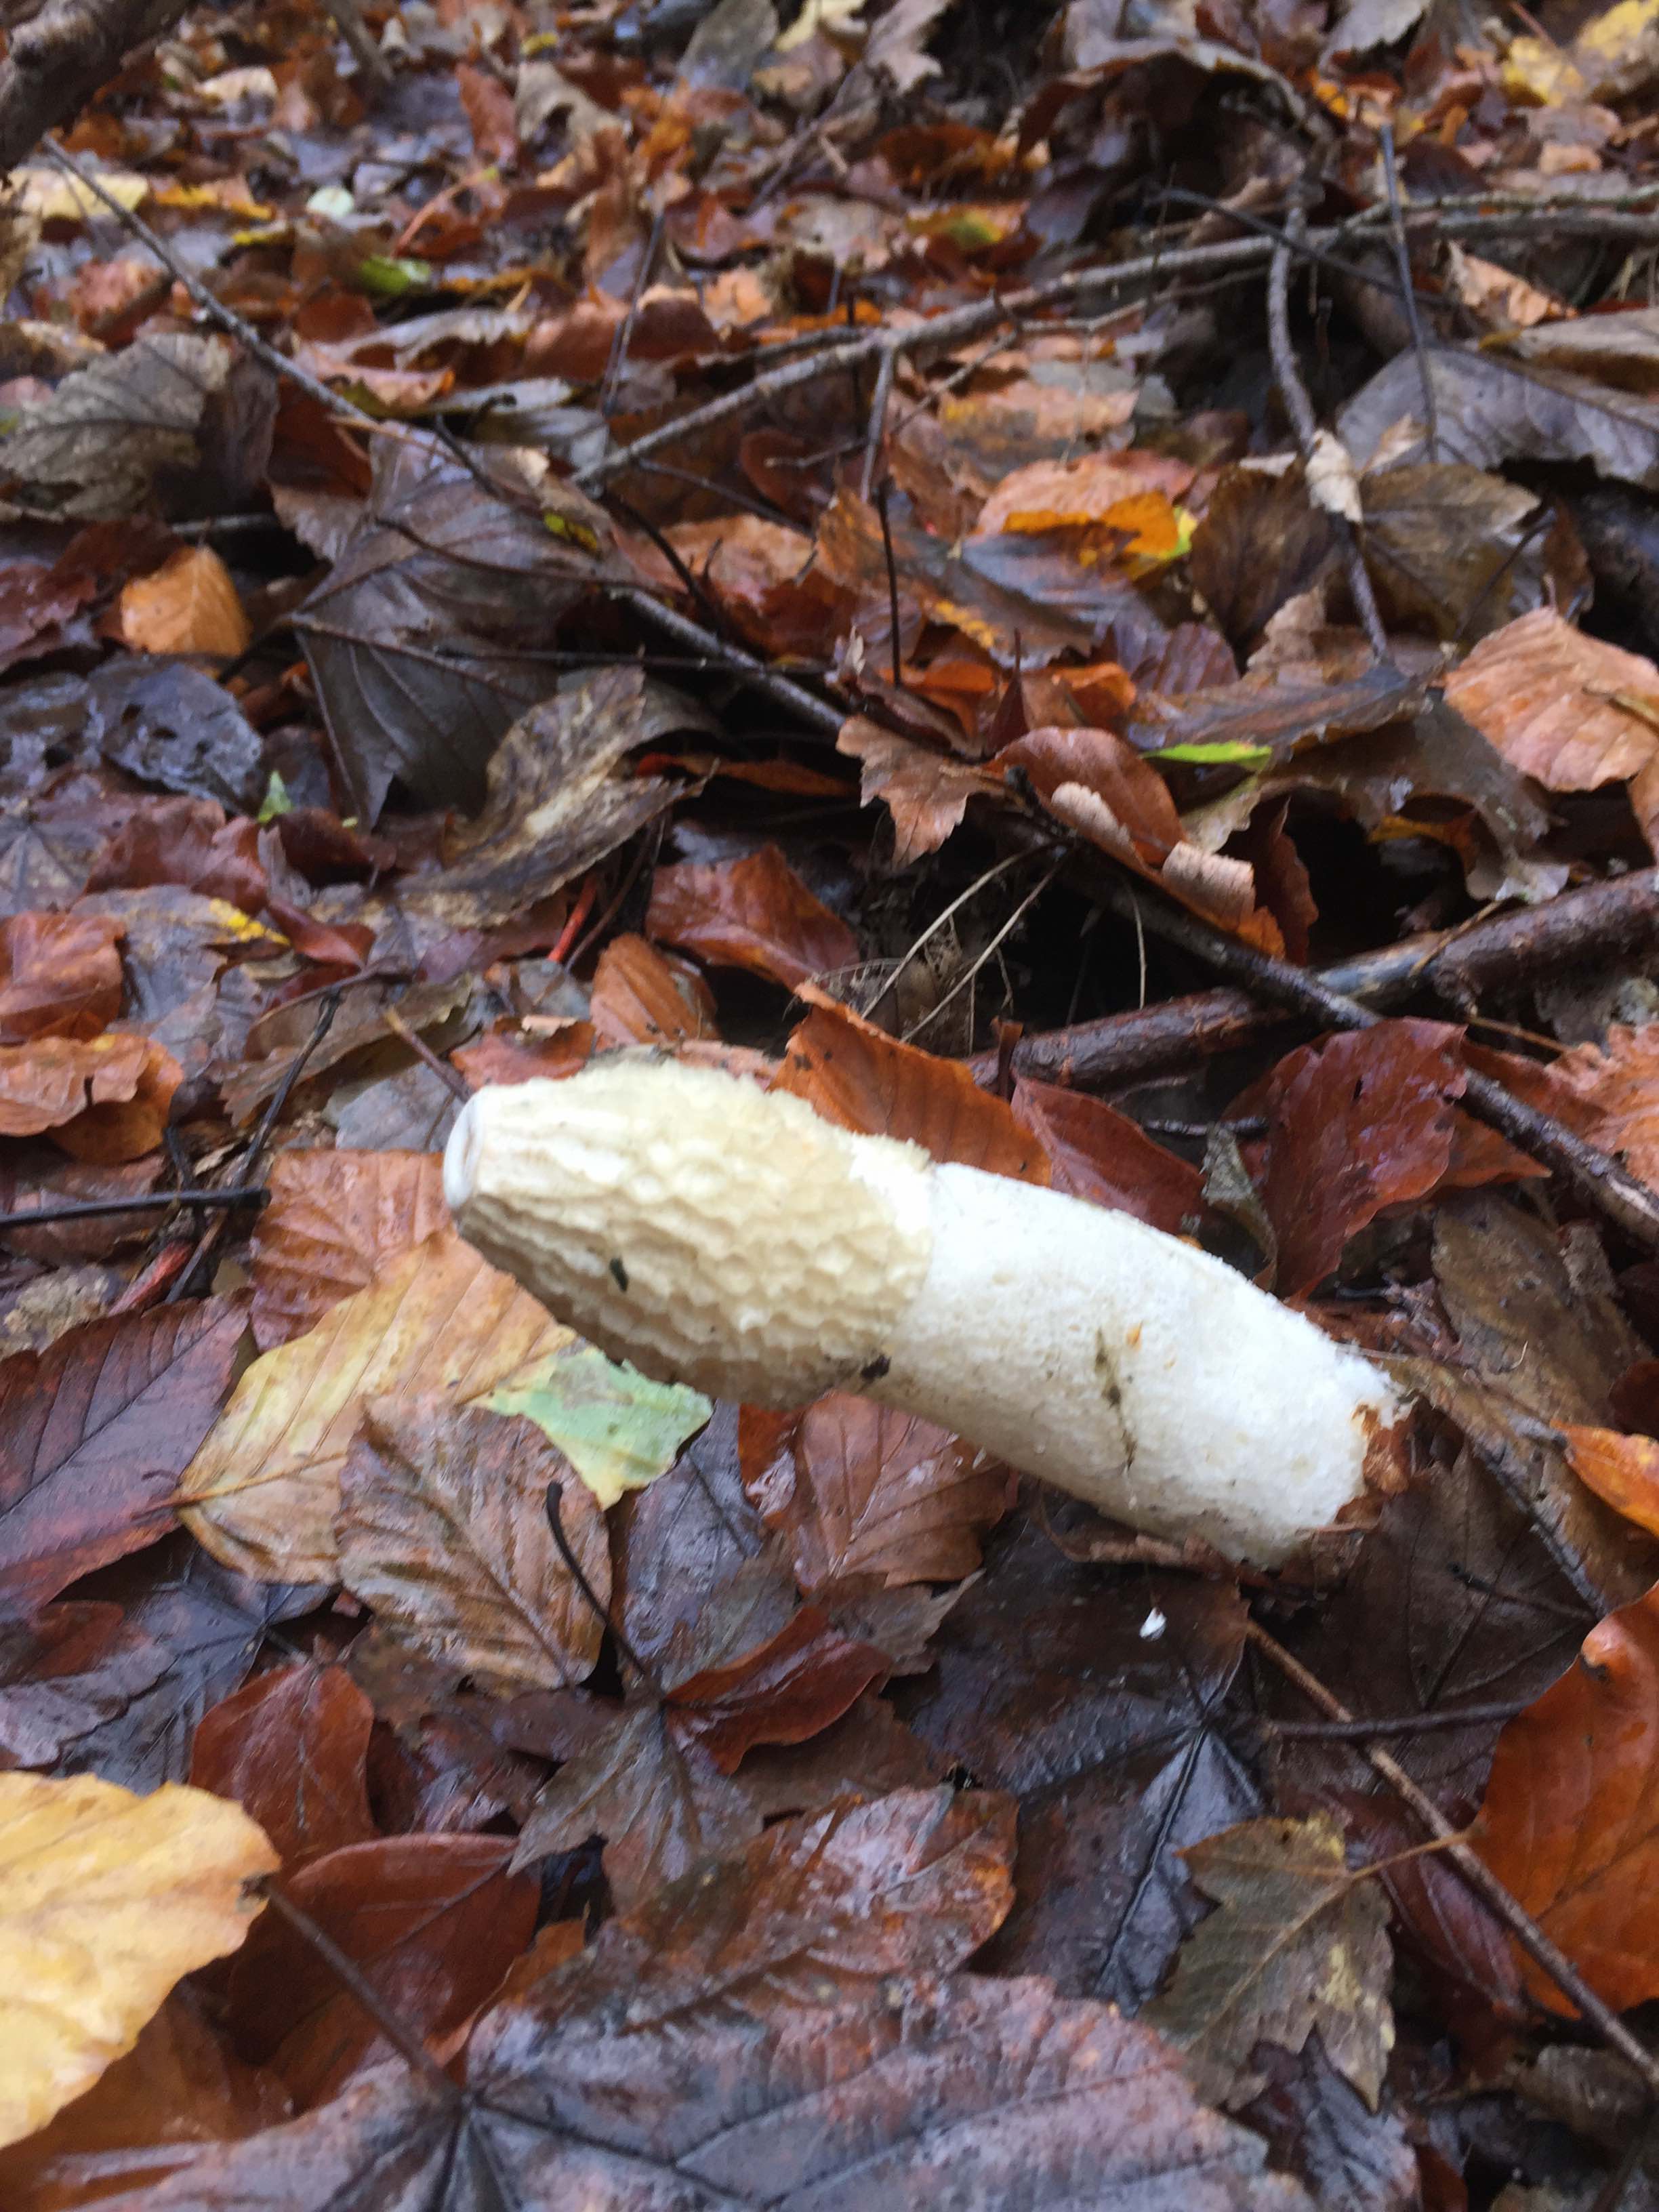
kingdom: Fungi
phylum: Basidiomycota
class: Agaricomycetes
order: Phallales
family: Phallaceae
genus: Phallus
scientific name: Phallus impudicus
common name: almindelig stinksvamp
